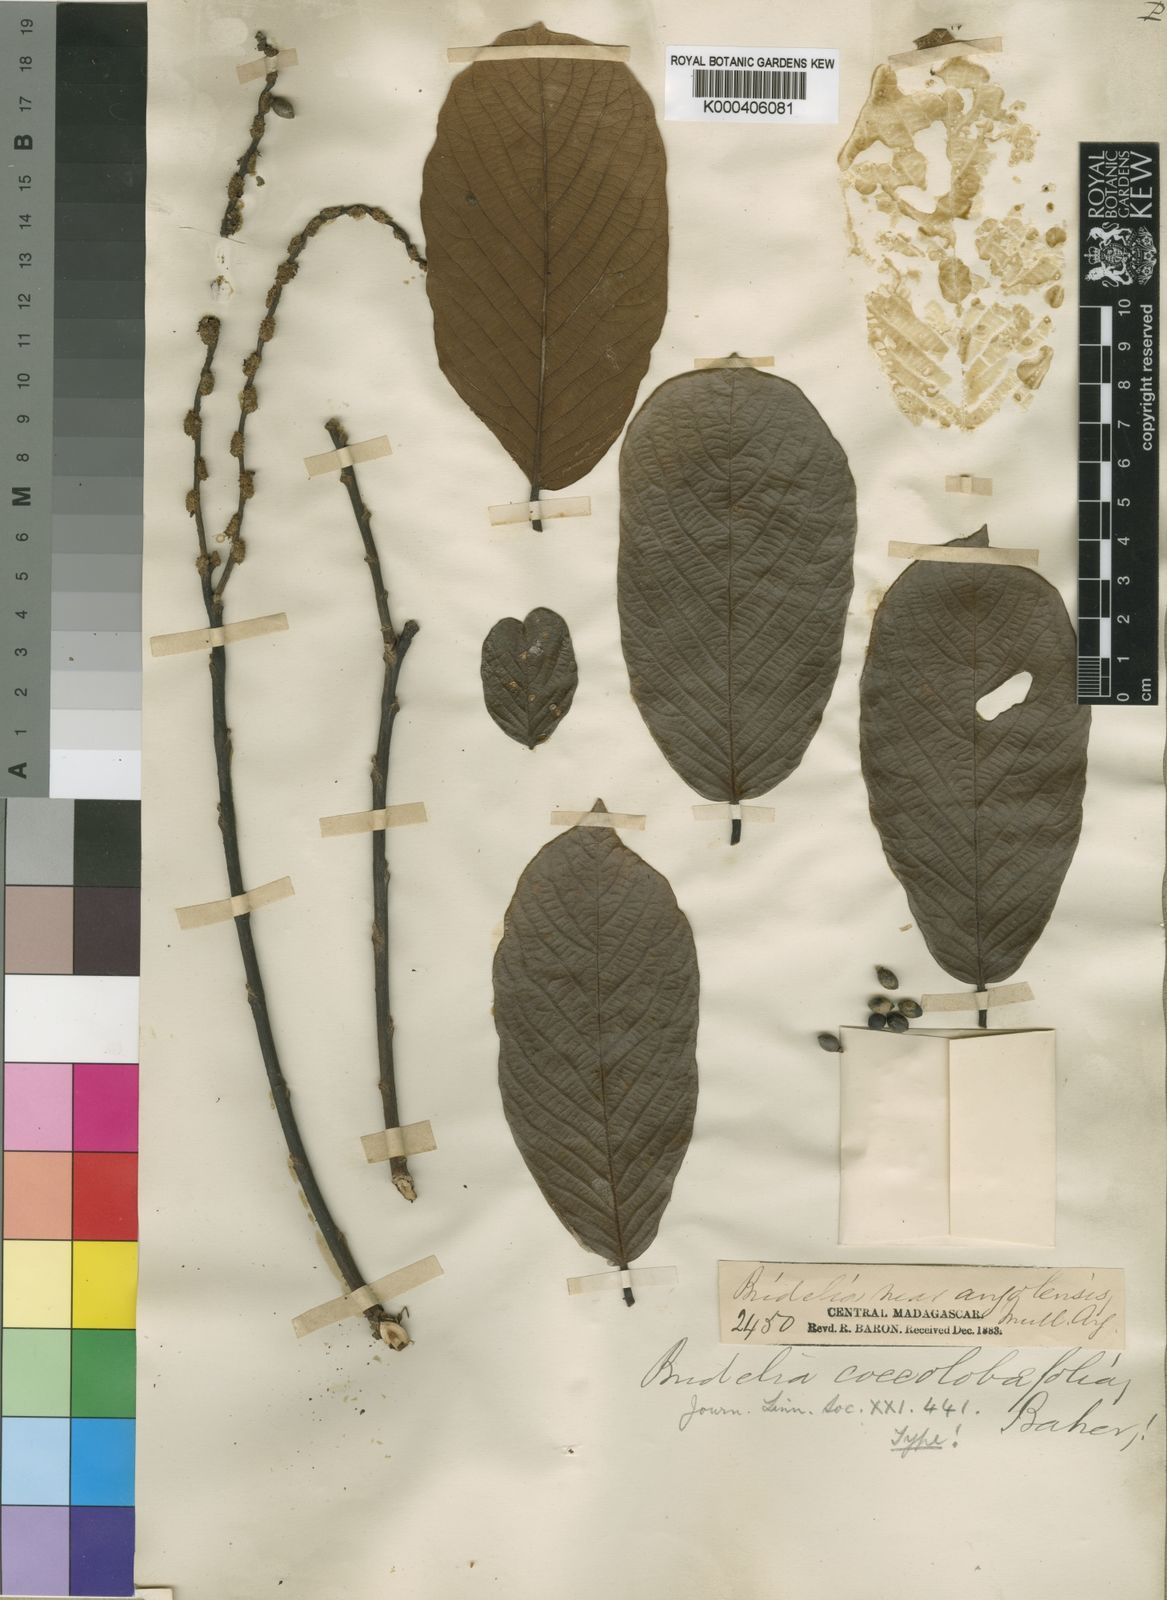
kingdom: Plantae
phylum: Tracheophyta
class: Magnoliopsida
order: Malpighiales
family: Phyllanthaceae
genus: Bridelia
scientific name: Bridelia tulasneana
